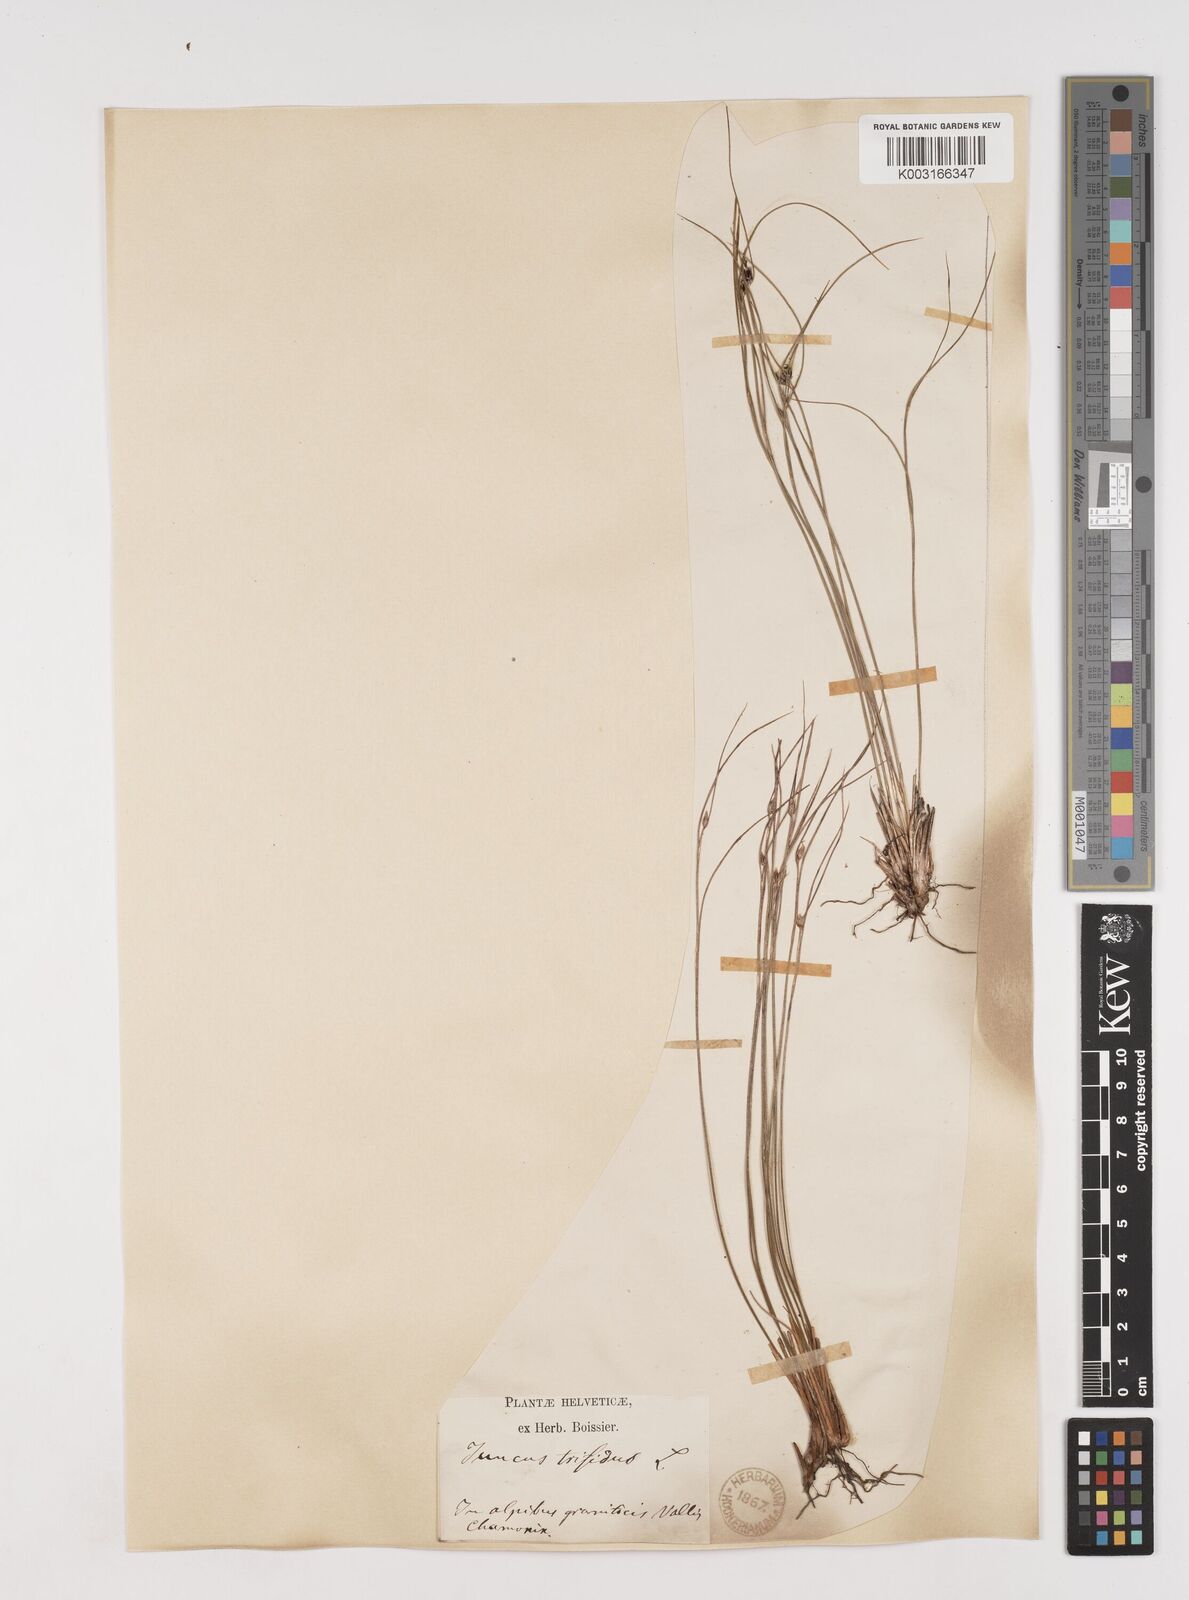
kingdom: Plantae
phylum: Tracheophyta
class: Liliopsida
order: Poales
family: Juncaceae
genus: Oreojuncus
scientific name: Oreojuncus trifidus
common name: Highland rush
